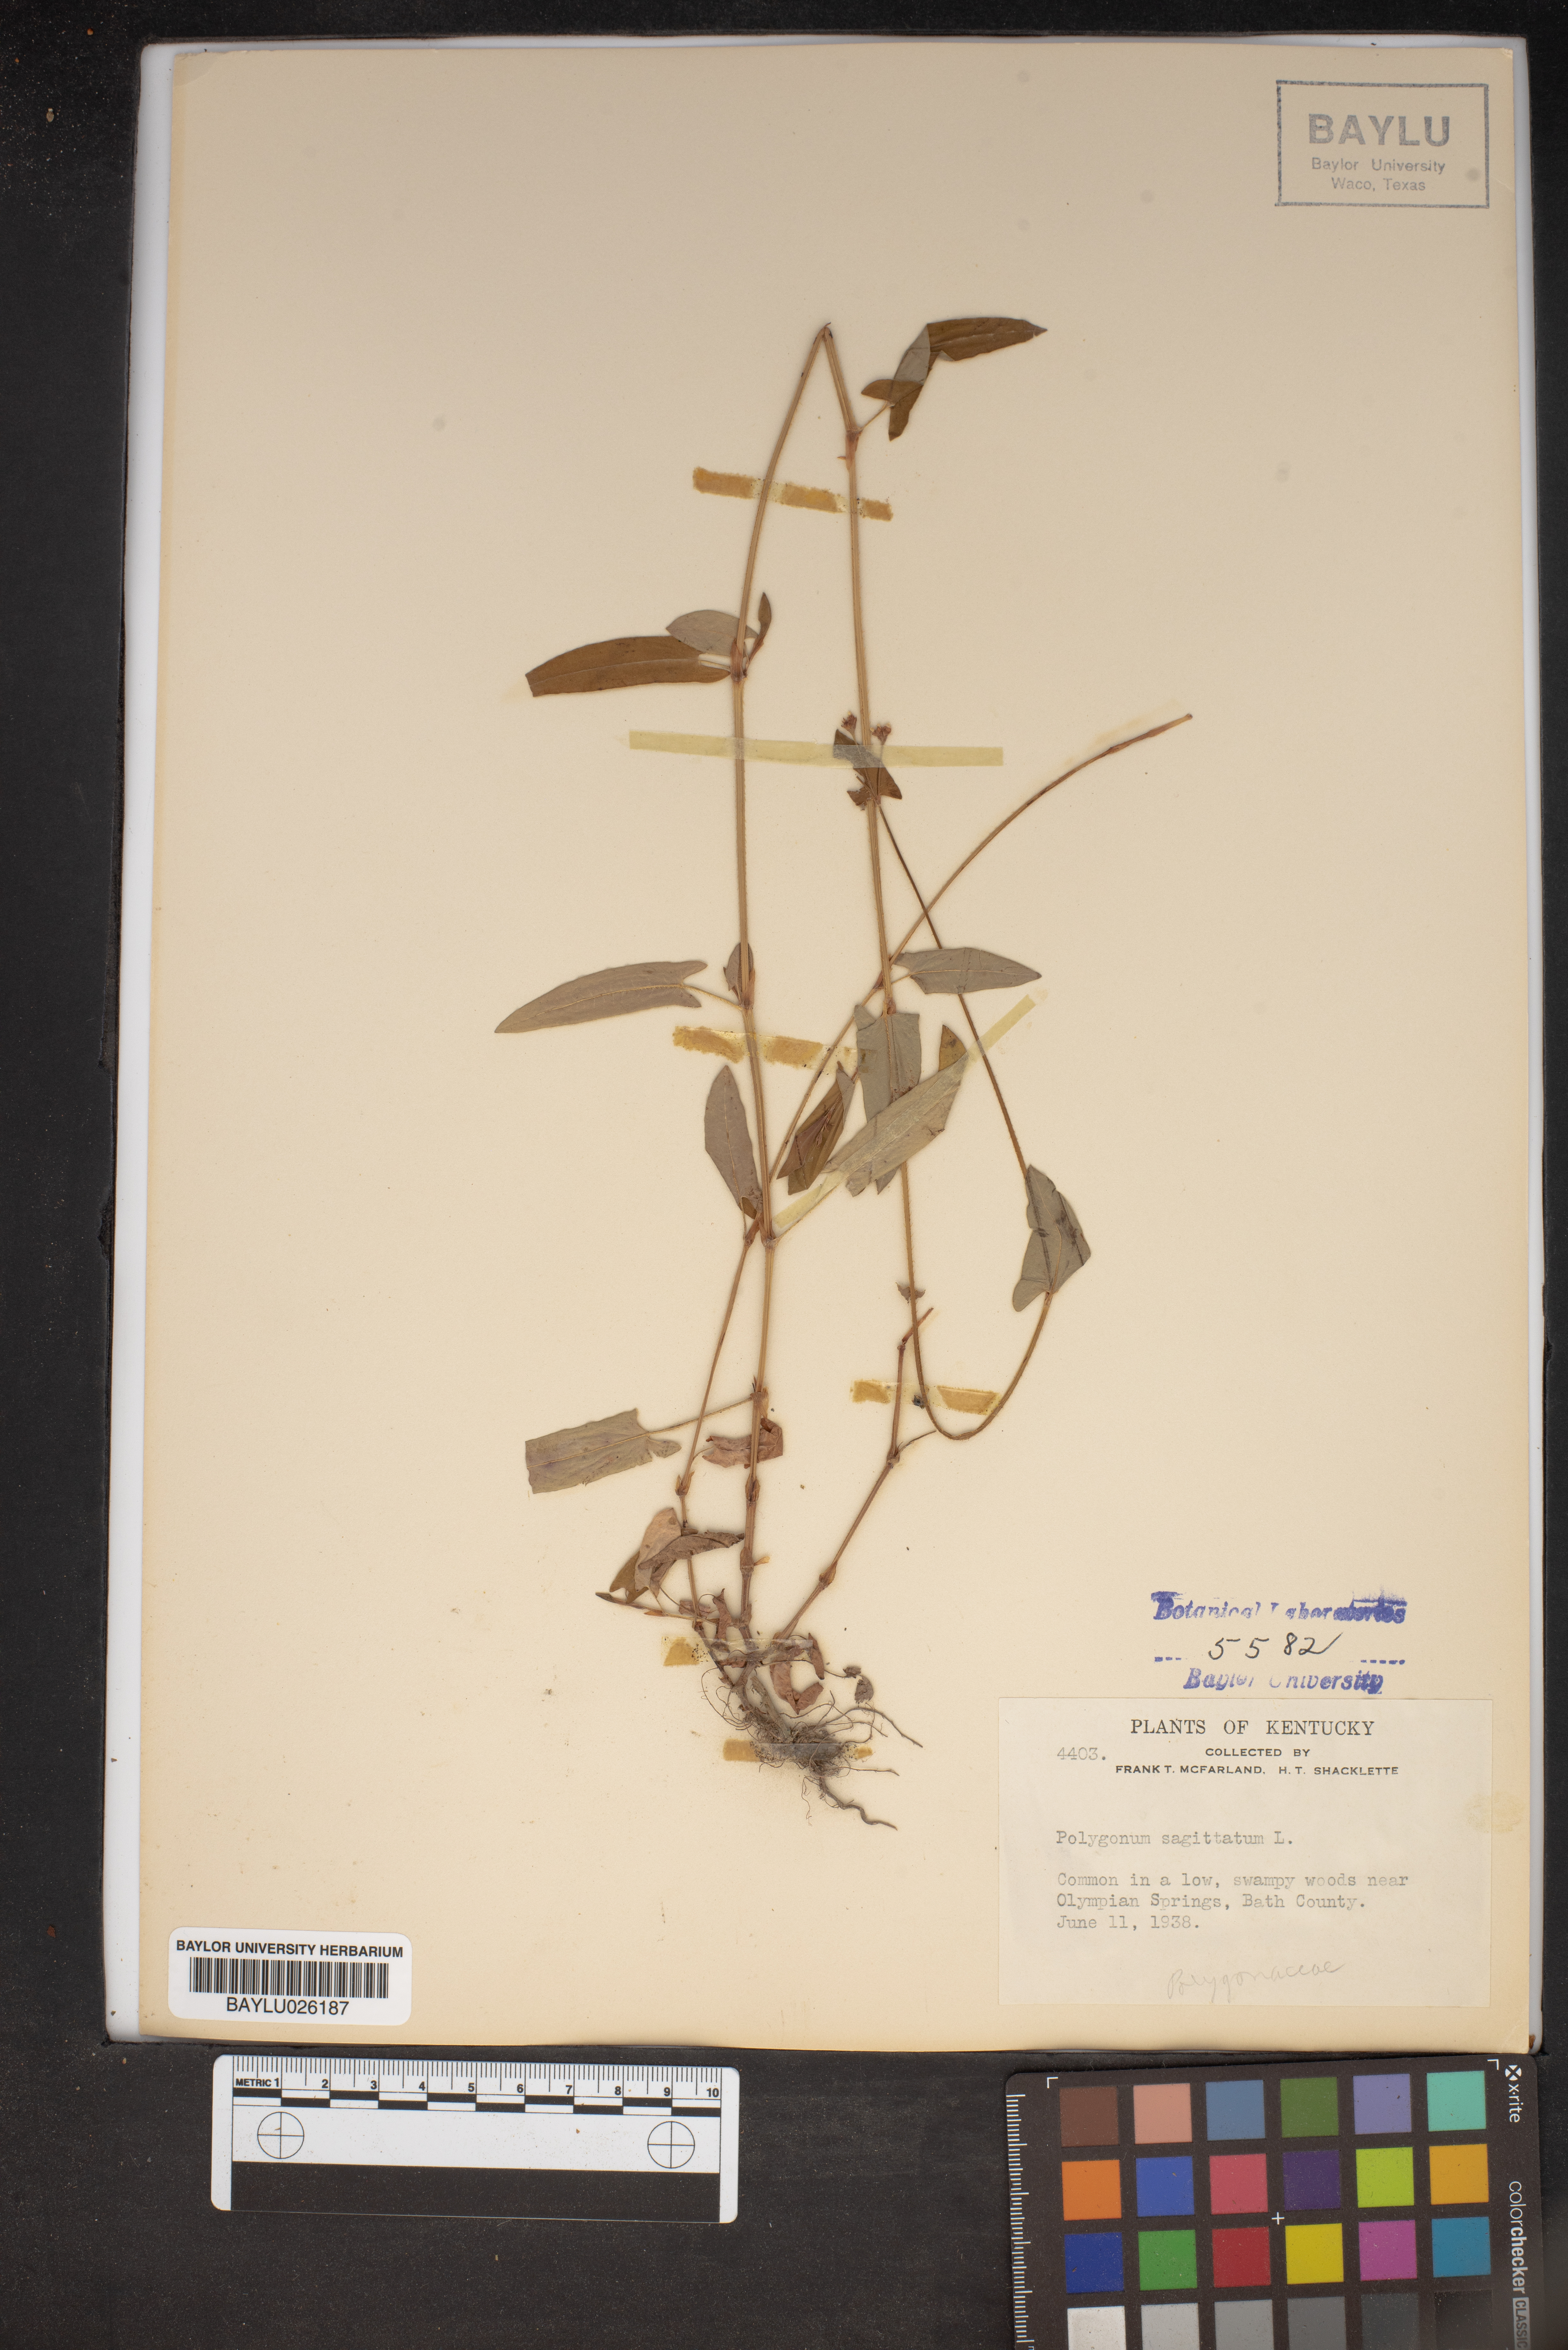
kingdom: Plantae
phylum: Tracheophyta
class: Magnoliopsida
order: Caryophyllales
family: Polygonaceae
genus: Persicaria
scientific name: Persicaria sagittata
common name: American tearthumb
